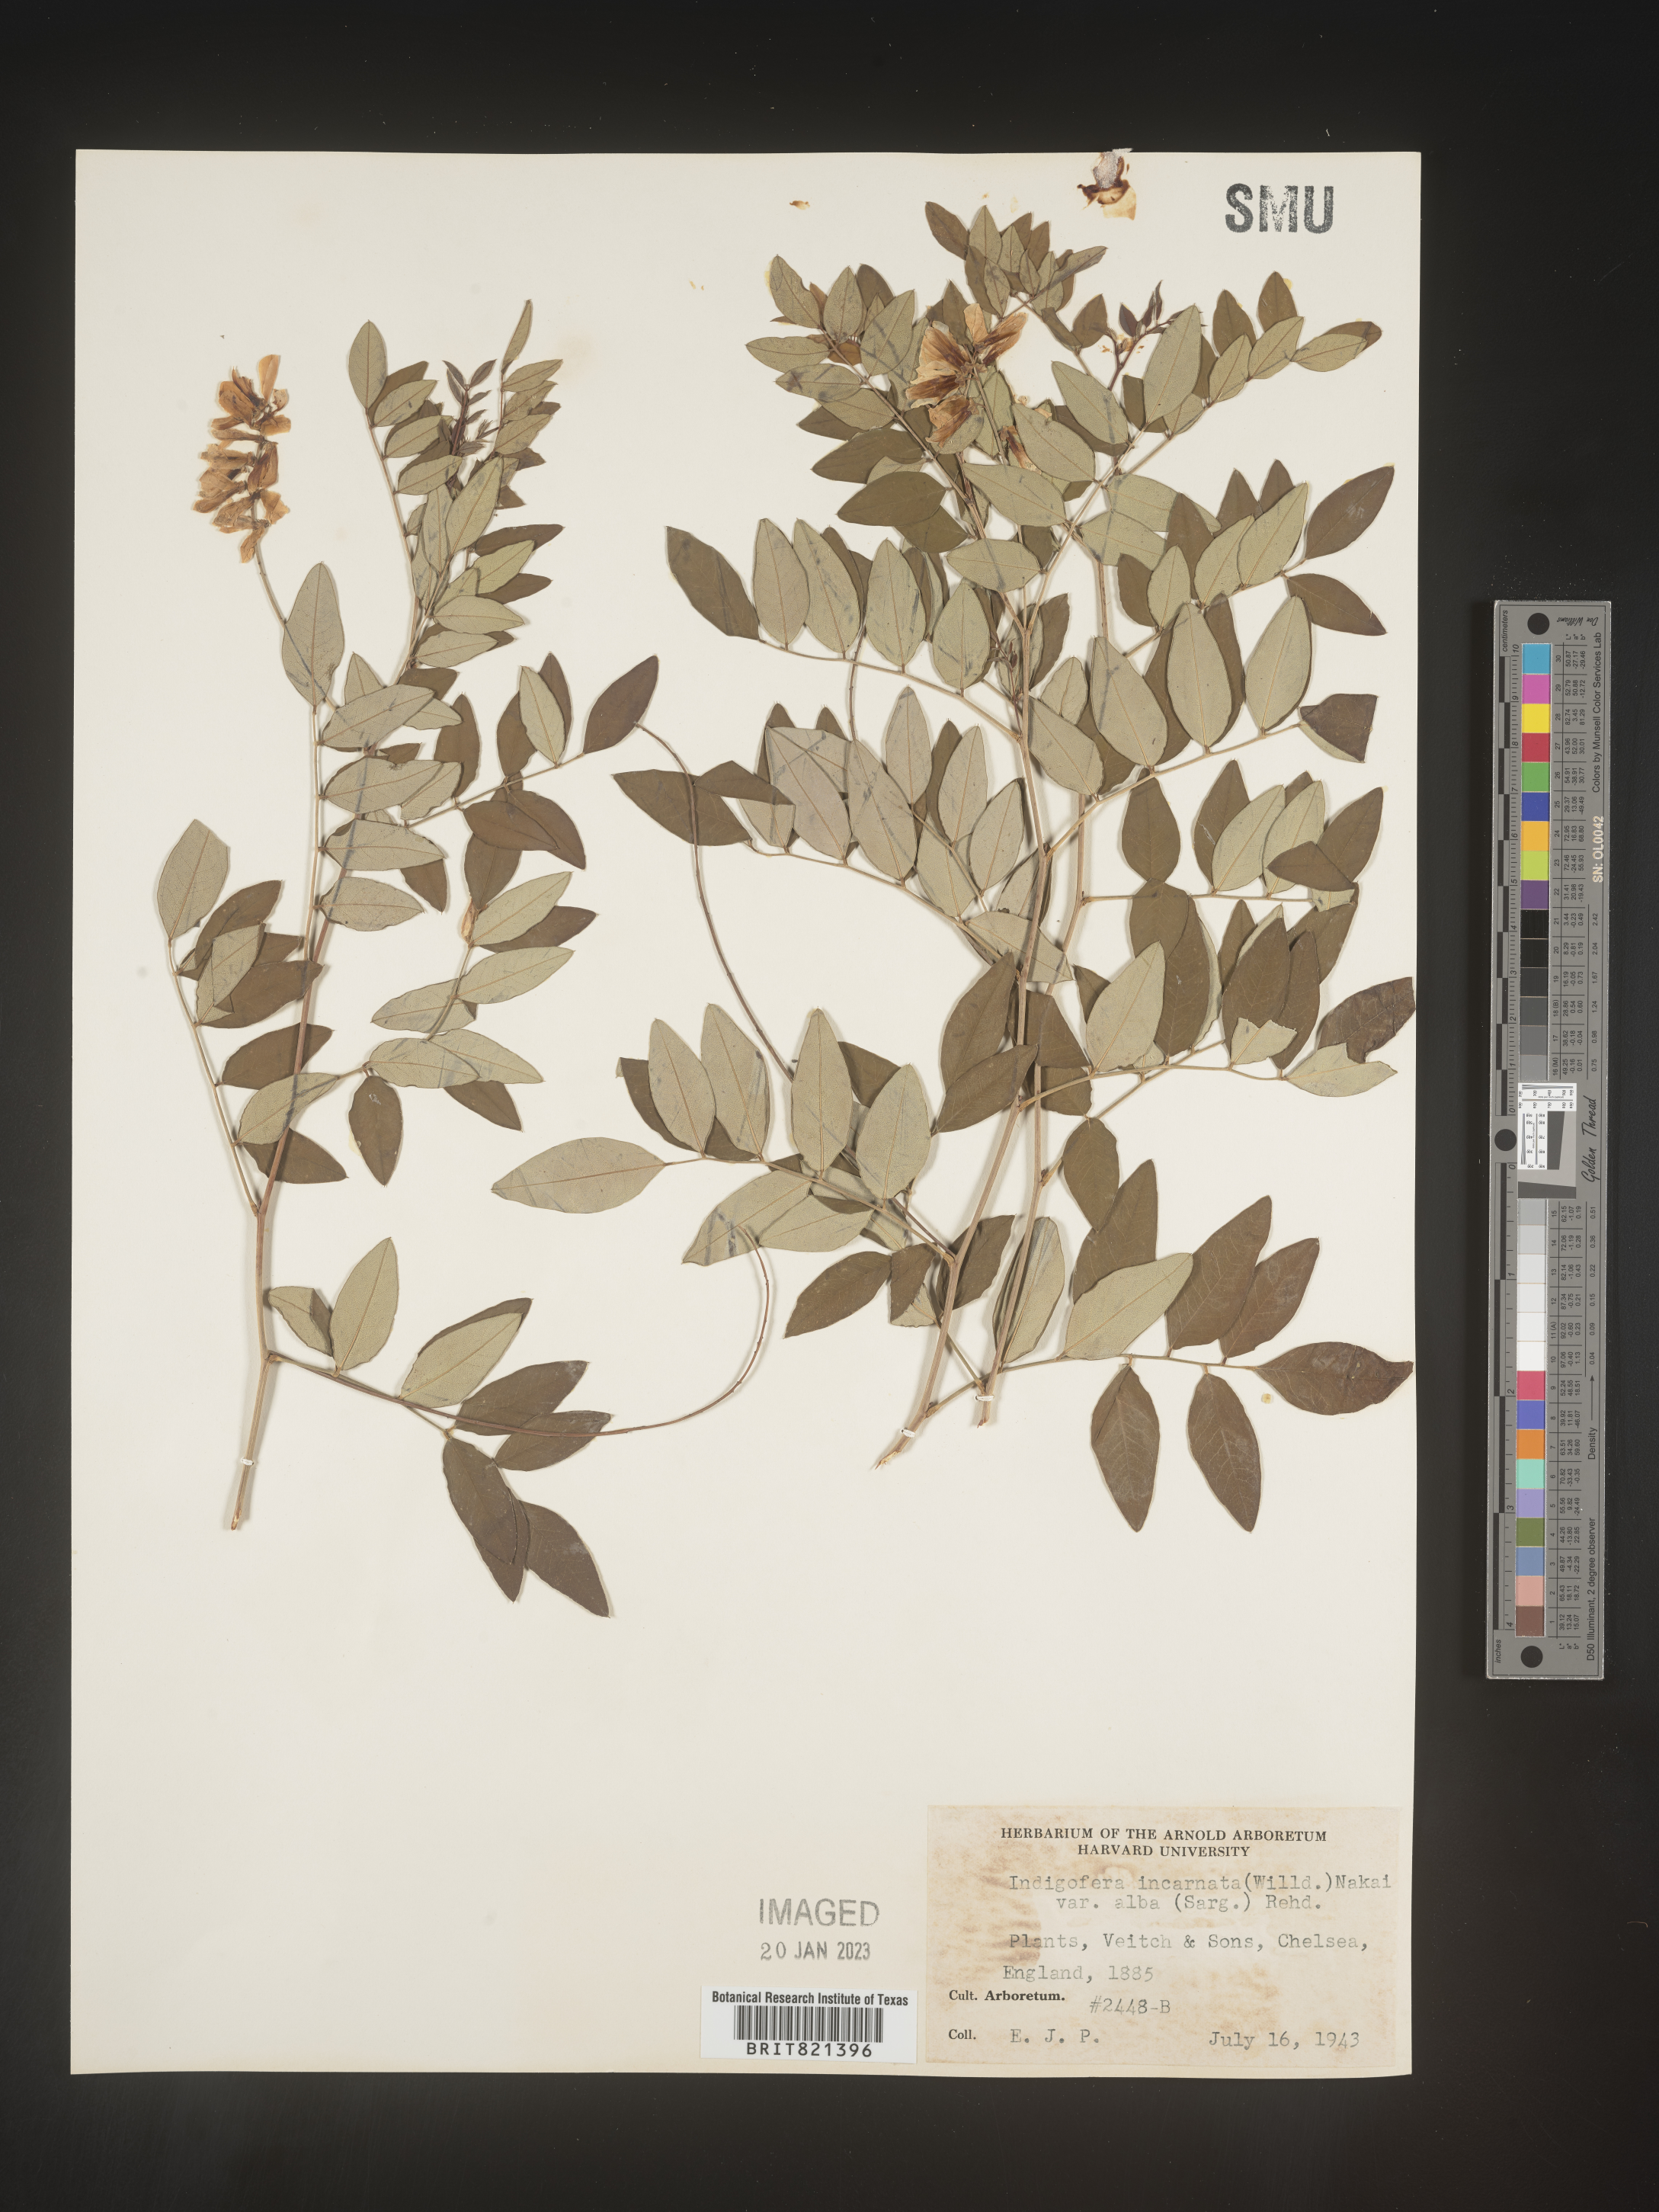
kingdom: Plantae
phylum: Tracheophyta
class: Magnoliopsida
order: Fabales
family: Fabaceae
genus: Indigofera
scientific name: Indigofera
